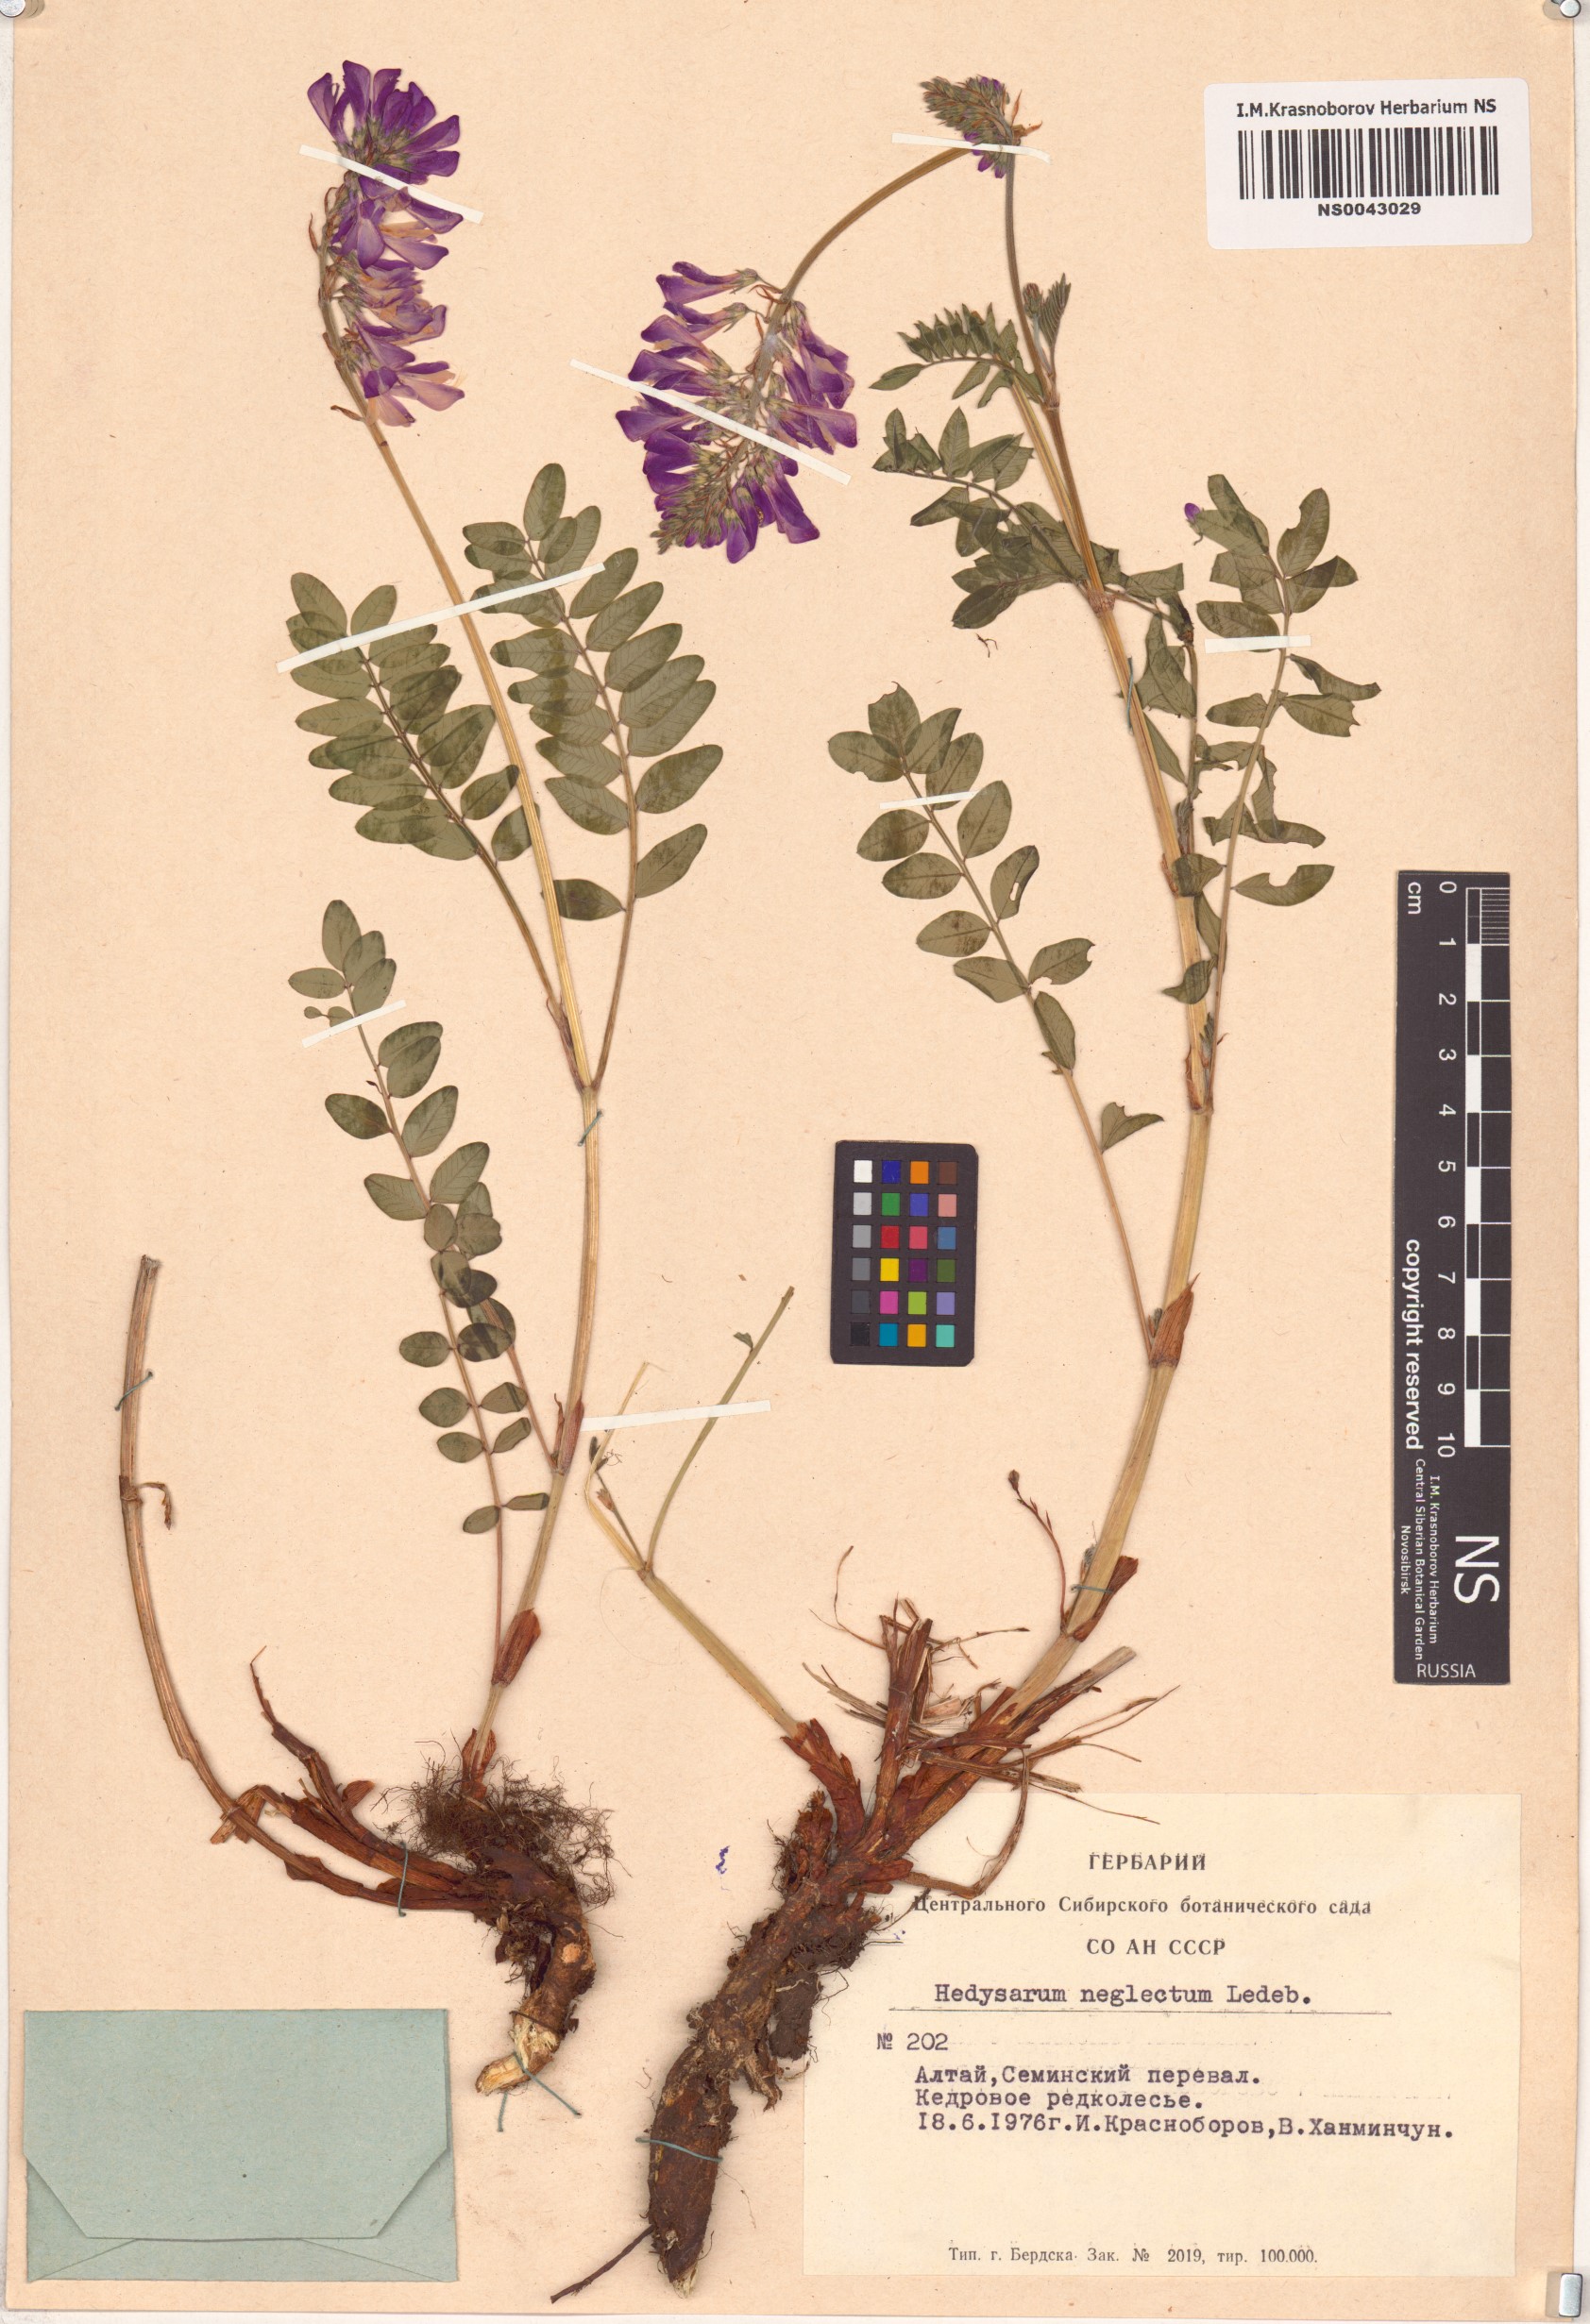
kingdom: Plantae
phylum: Tracheophyta
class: Magnoliopsida
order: Fabales
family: Fabaceae
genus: Hedysarum
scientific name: Hedysarum neglectum
